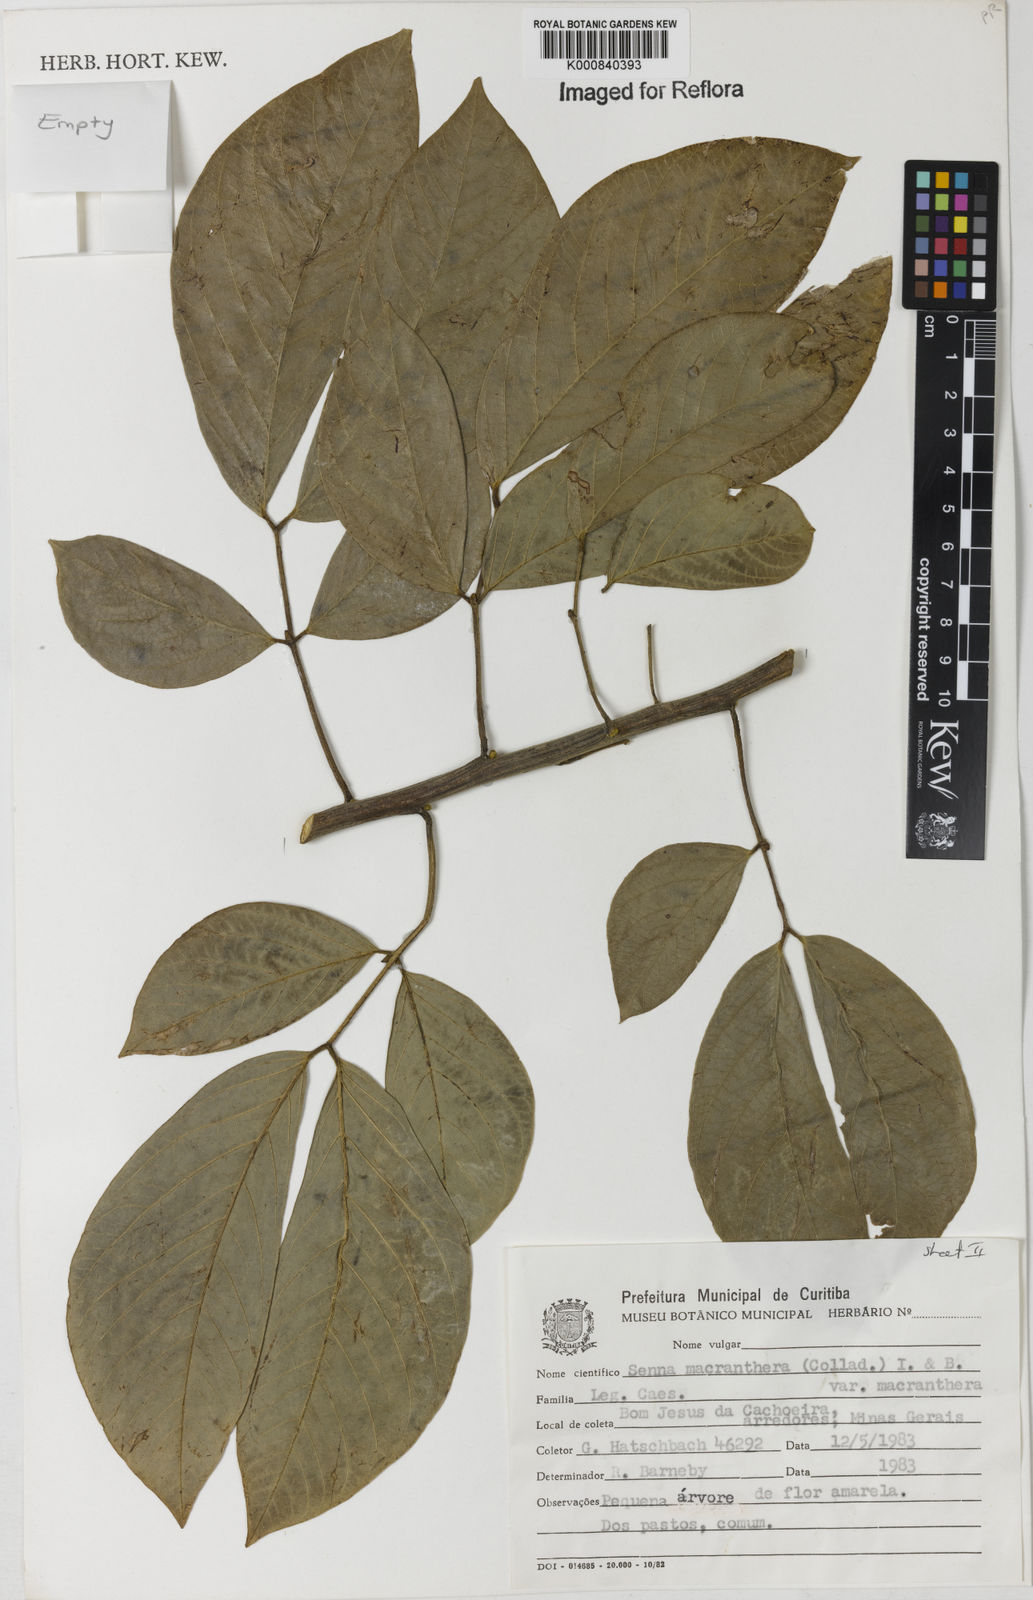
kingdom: Plantae
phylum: Tracheophyta
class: Magnoliopsida
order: Fabales
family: Fabaceae
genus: Senna
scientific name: Senna macranthera
